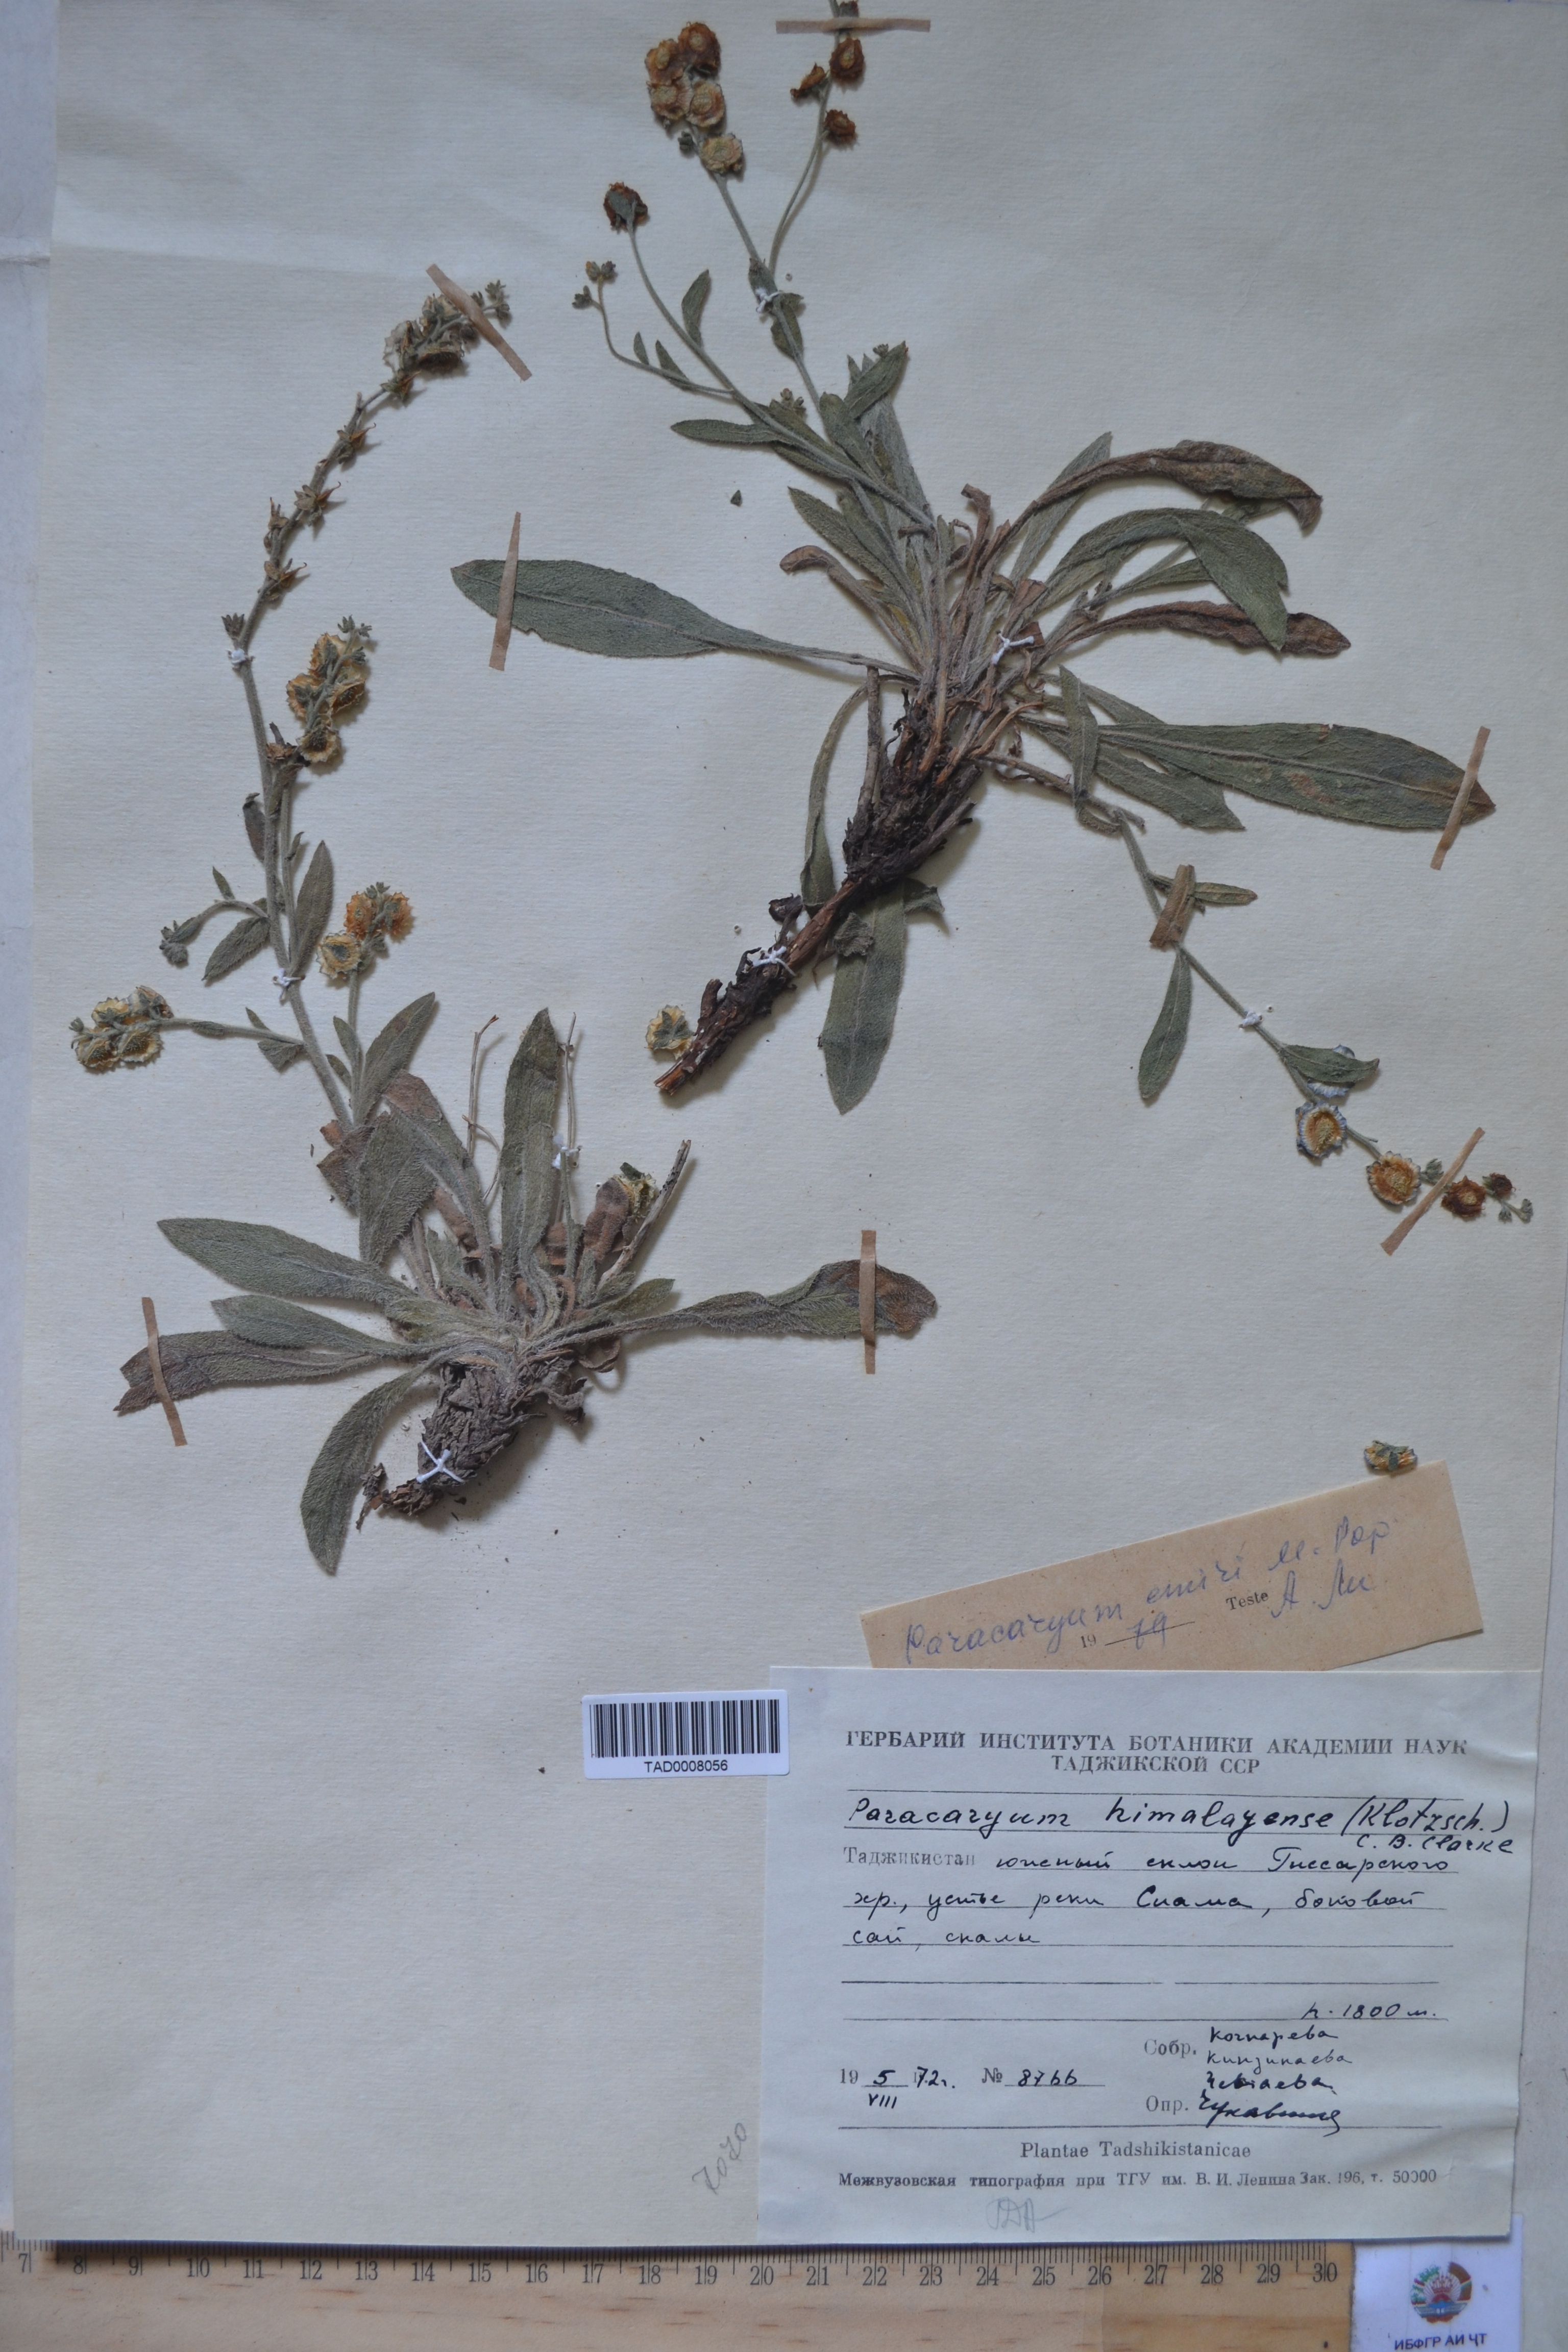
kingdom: Plantae
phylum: Tracheophyta
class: Magnoliopsida
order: Boraginales
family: Boraginaceae
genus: Paracaryum
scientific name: Paracaryum himalayense
